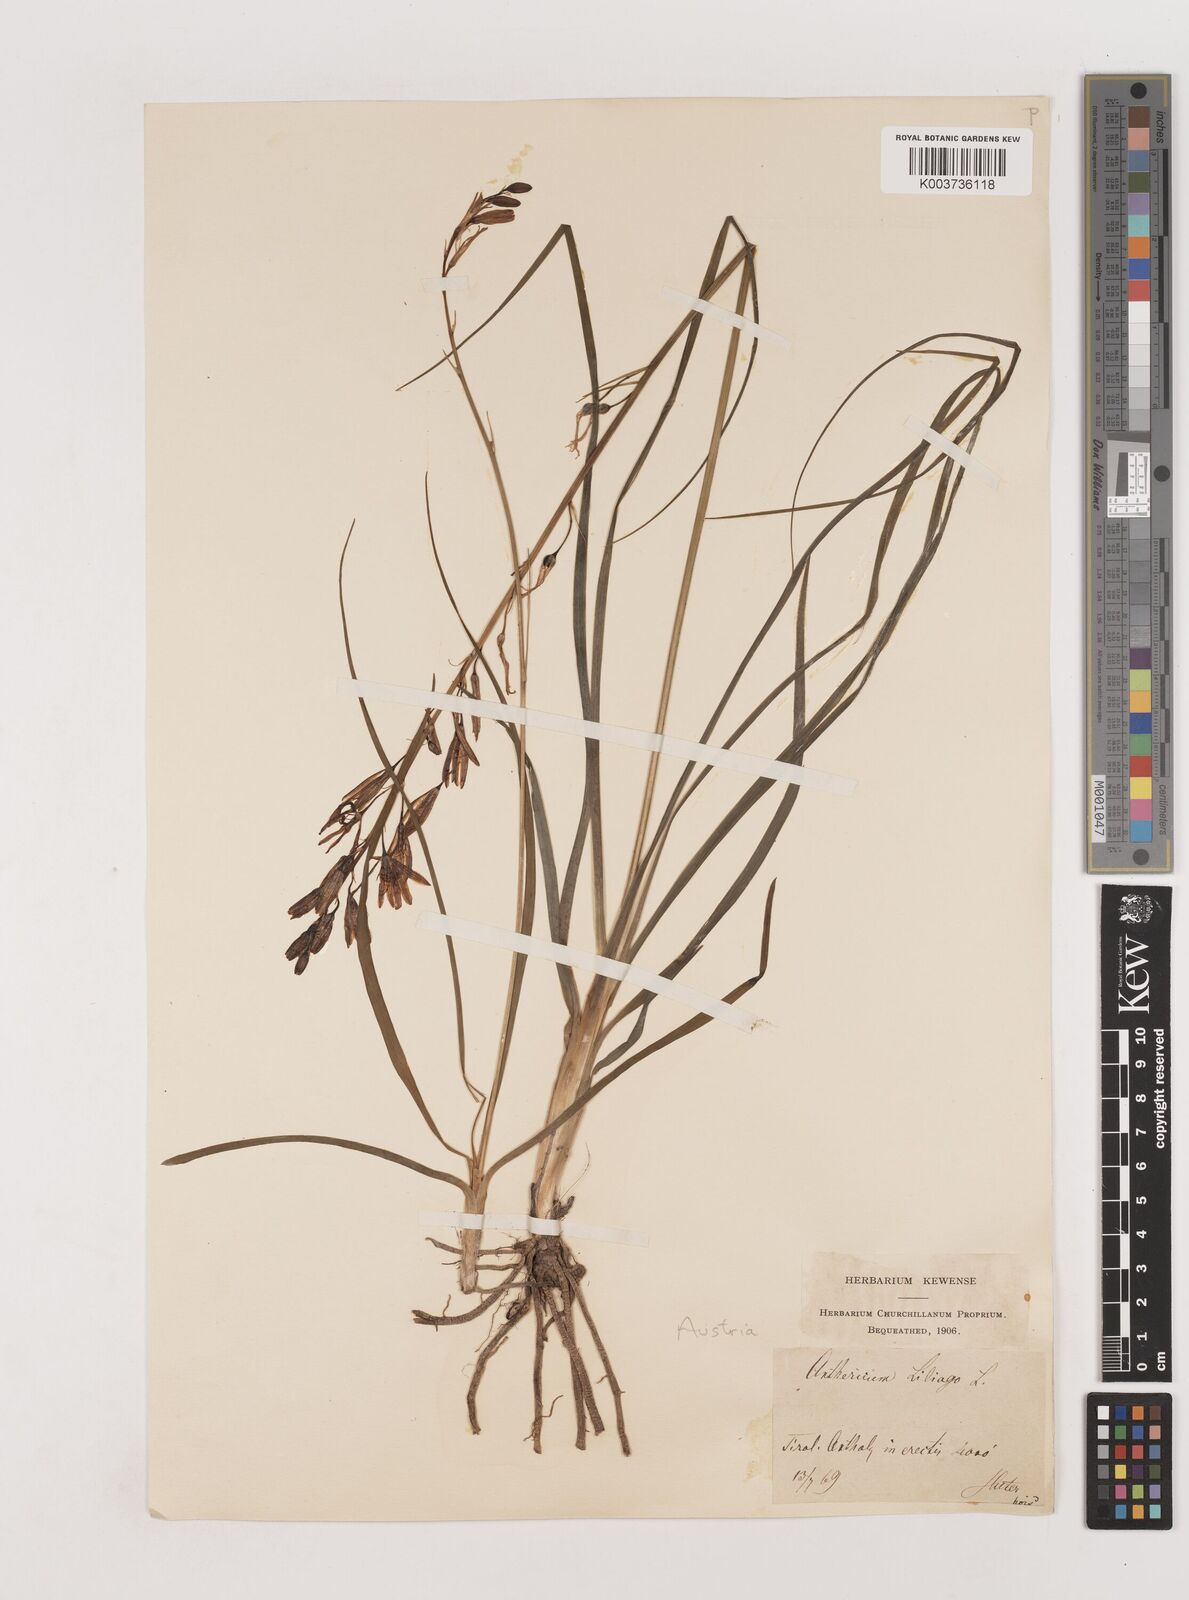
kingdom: Plantae
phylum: Tracheophyta
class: Liliopsida
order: Asparagales
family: Asparagaceae
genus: Anthericum
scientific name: Anthericum liliago
